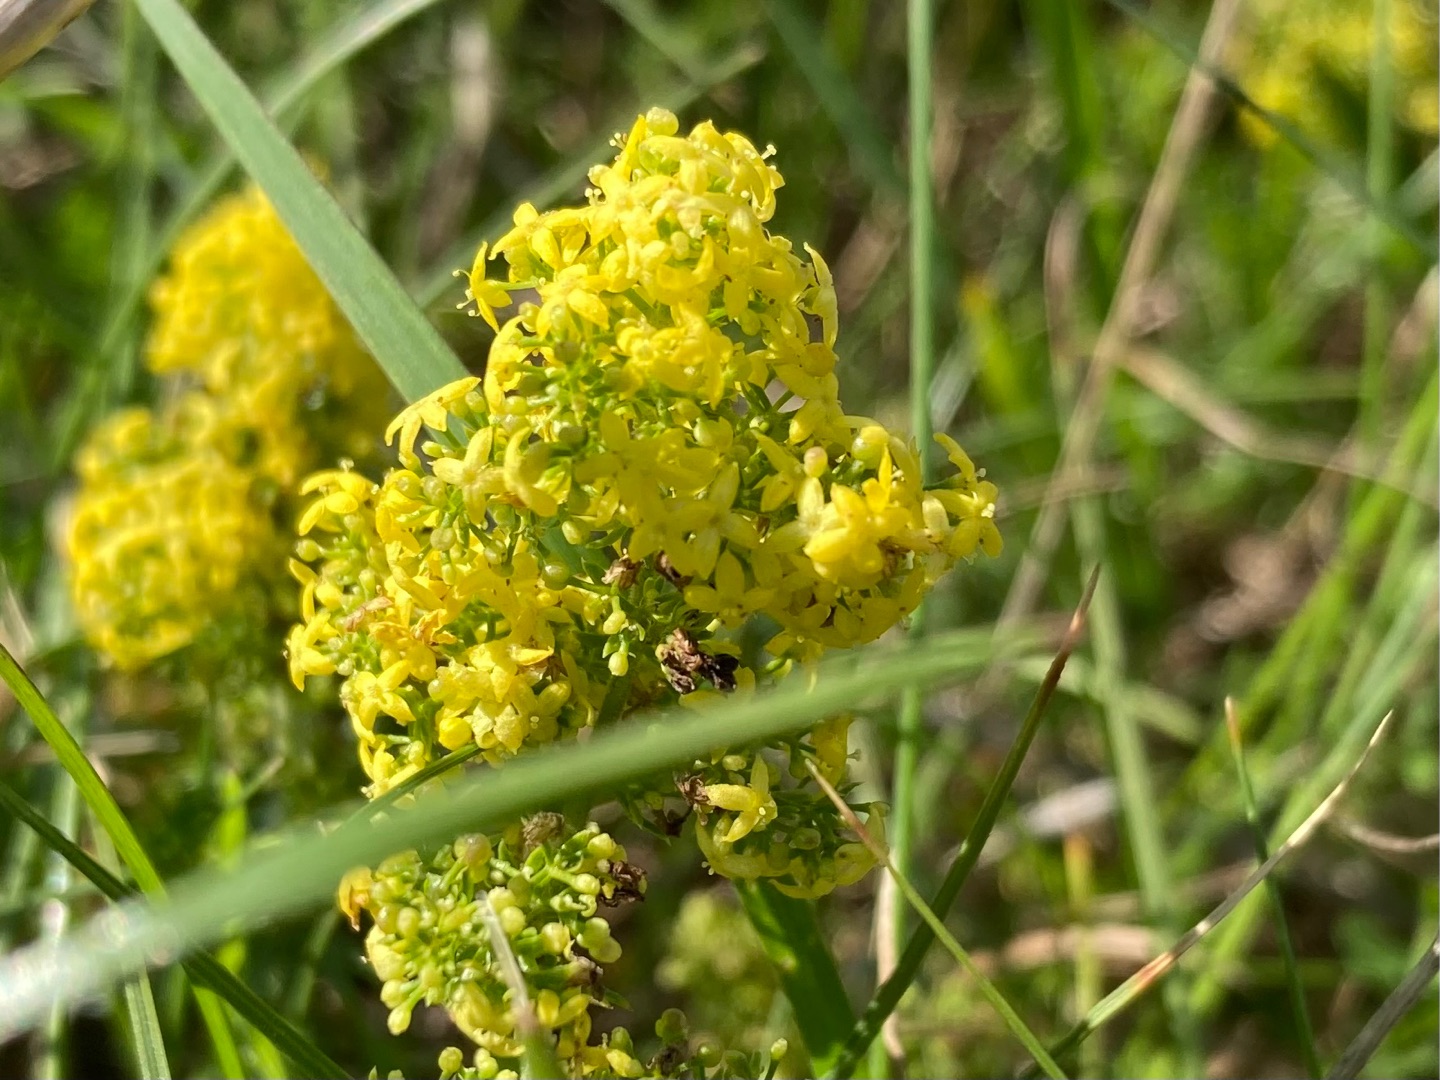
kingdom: Plantae
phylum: Tracheophyta
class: Magnoliopsida
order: Gentianales
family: Rubiaceae
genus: Galium
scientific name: Galium verum
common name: Gul snerre
